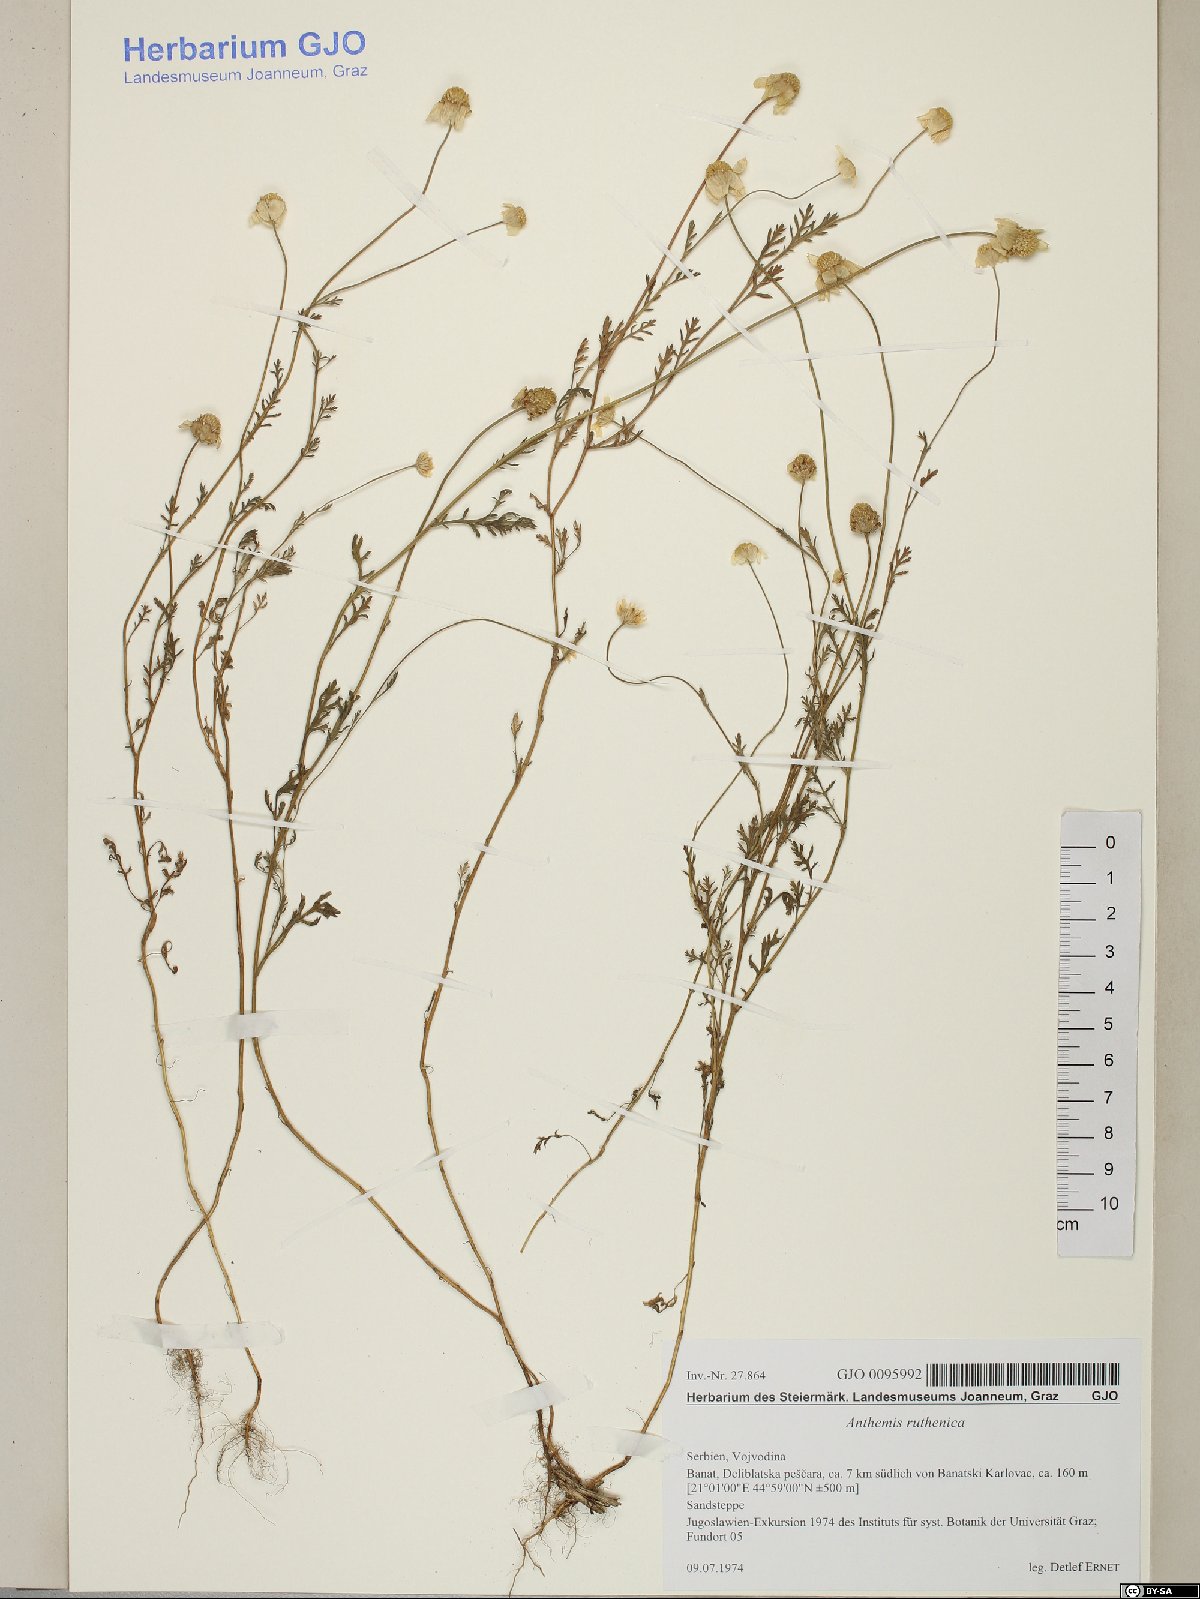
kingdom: Plantae
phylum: Tracheophyta
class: Magnoliopsida
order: Asterales
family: Asteraceae
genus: Anthemis
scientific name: Anthemis ruthenica
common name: Eastern chamomile
